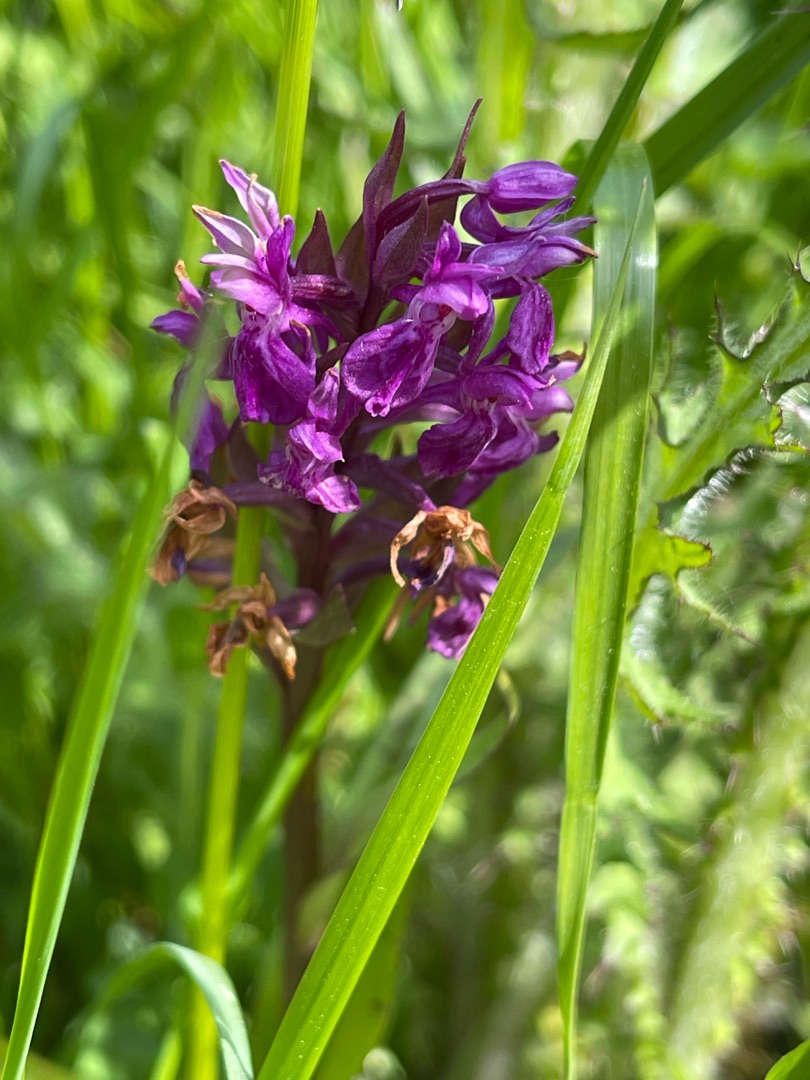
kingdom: Plantae
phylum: Tracheophyta
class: Liliopsida
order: Asparagales
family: Orchidaceae
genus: Dactylorhiza
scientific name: Dactylorhiza majalis
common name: Maj-gøgeurt
